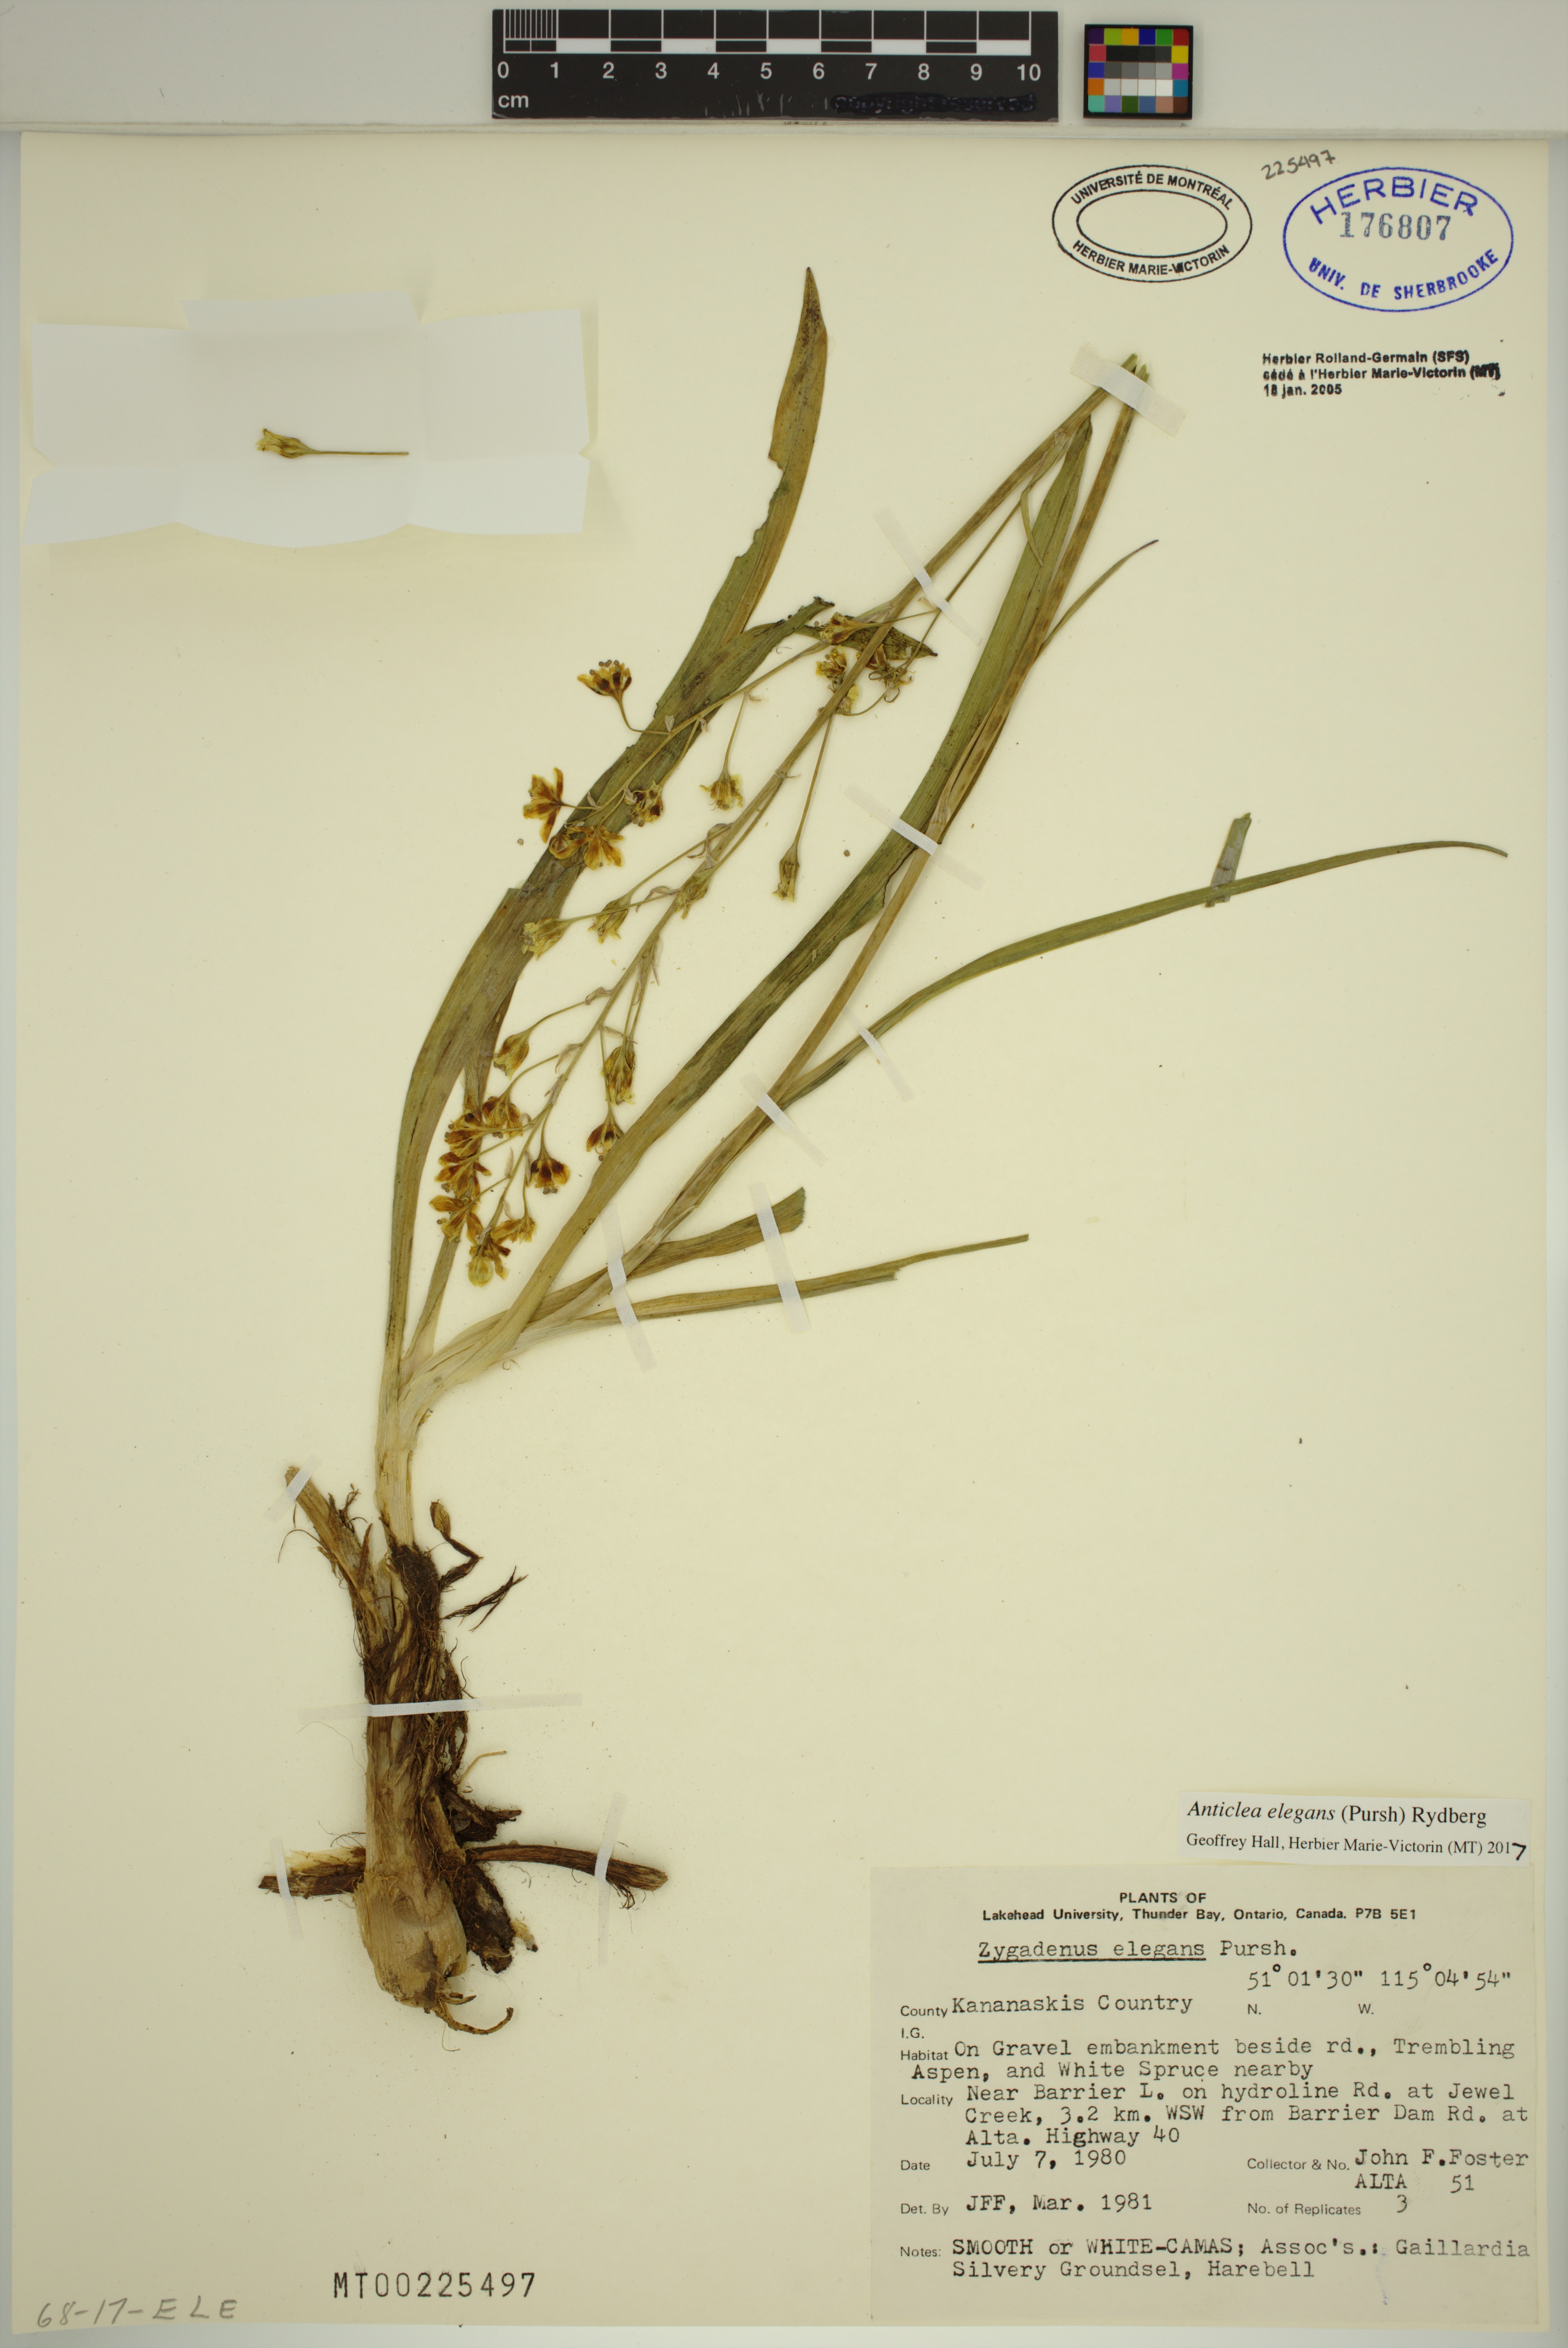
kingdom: Plantae
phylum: Tracheophyta
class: Liliopsida
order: Liliales
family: Melanthiaceae
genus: Anticlea
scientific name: Anticlea elegans
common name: Mountain death camas
